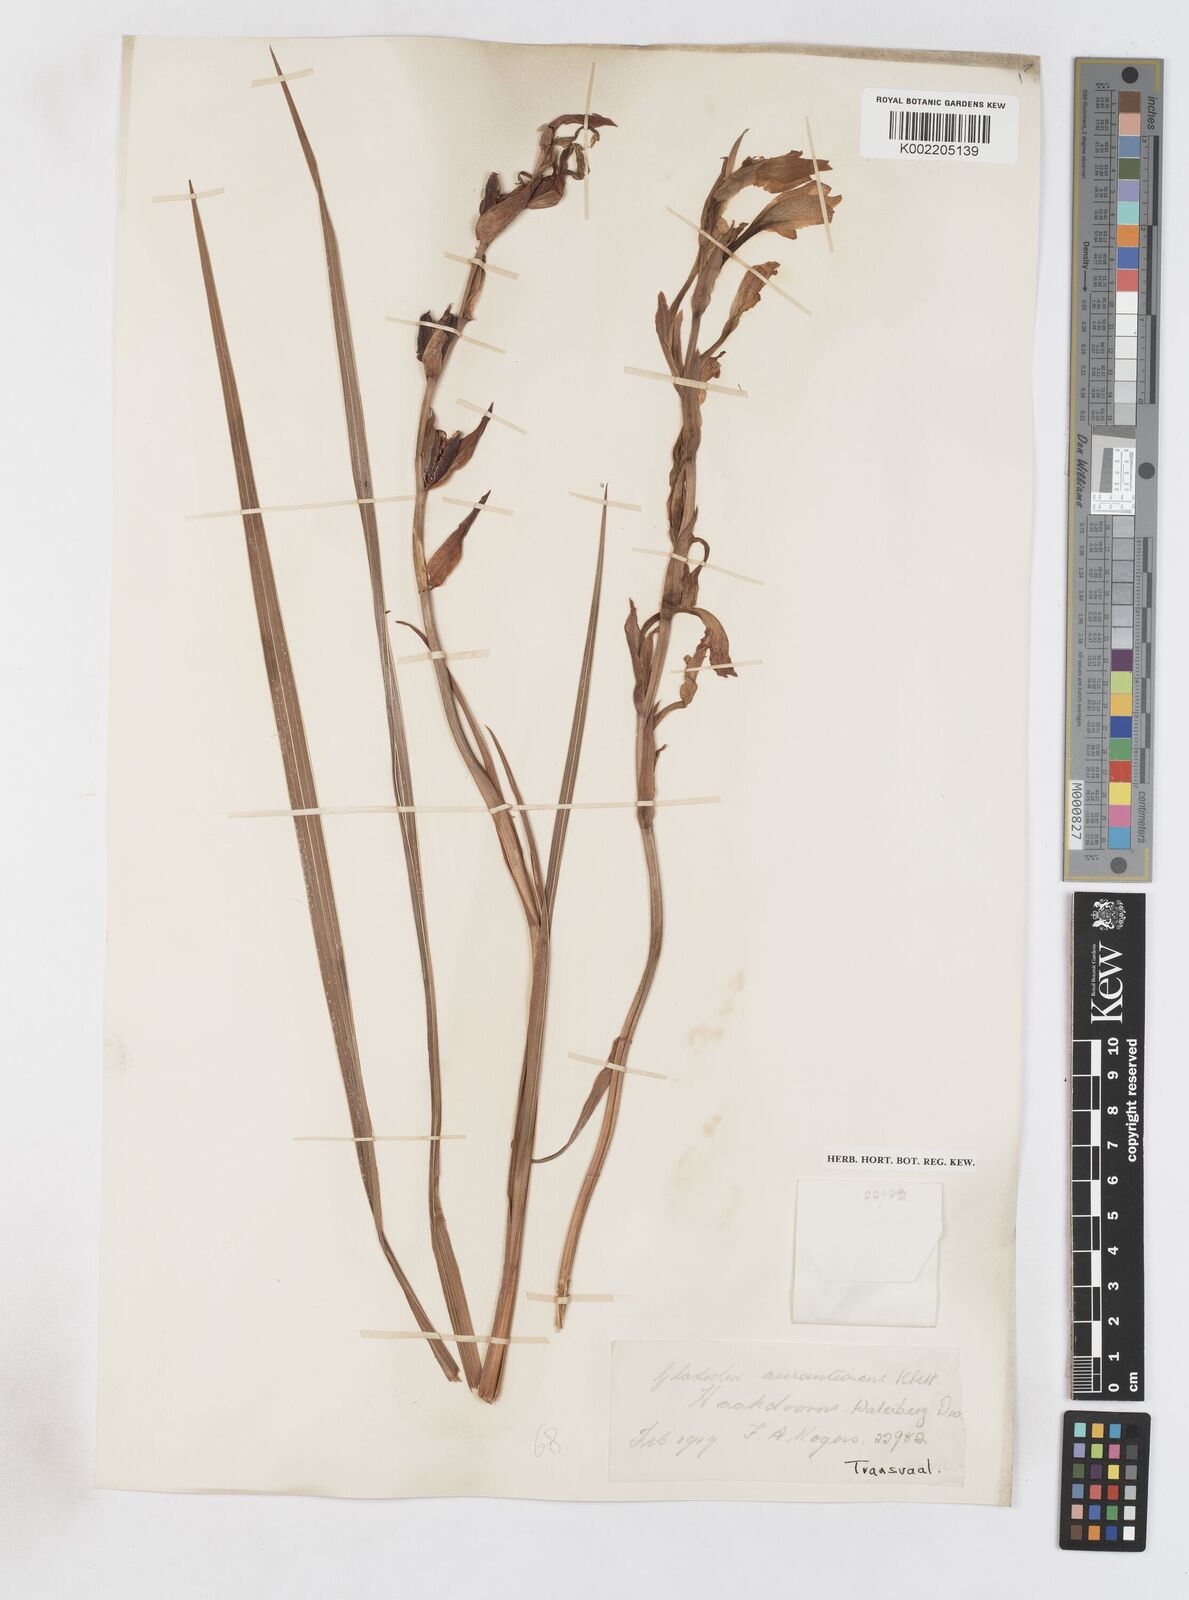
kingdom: Plantae
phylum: Tracheophyta
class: Liliopsida
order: Asparagales
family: Iridaceae
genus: Gladiolus
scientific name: Gladiolus dalenii
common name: Cornflag
